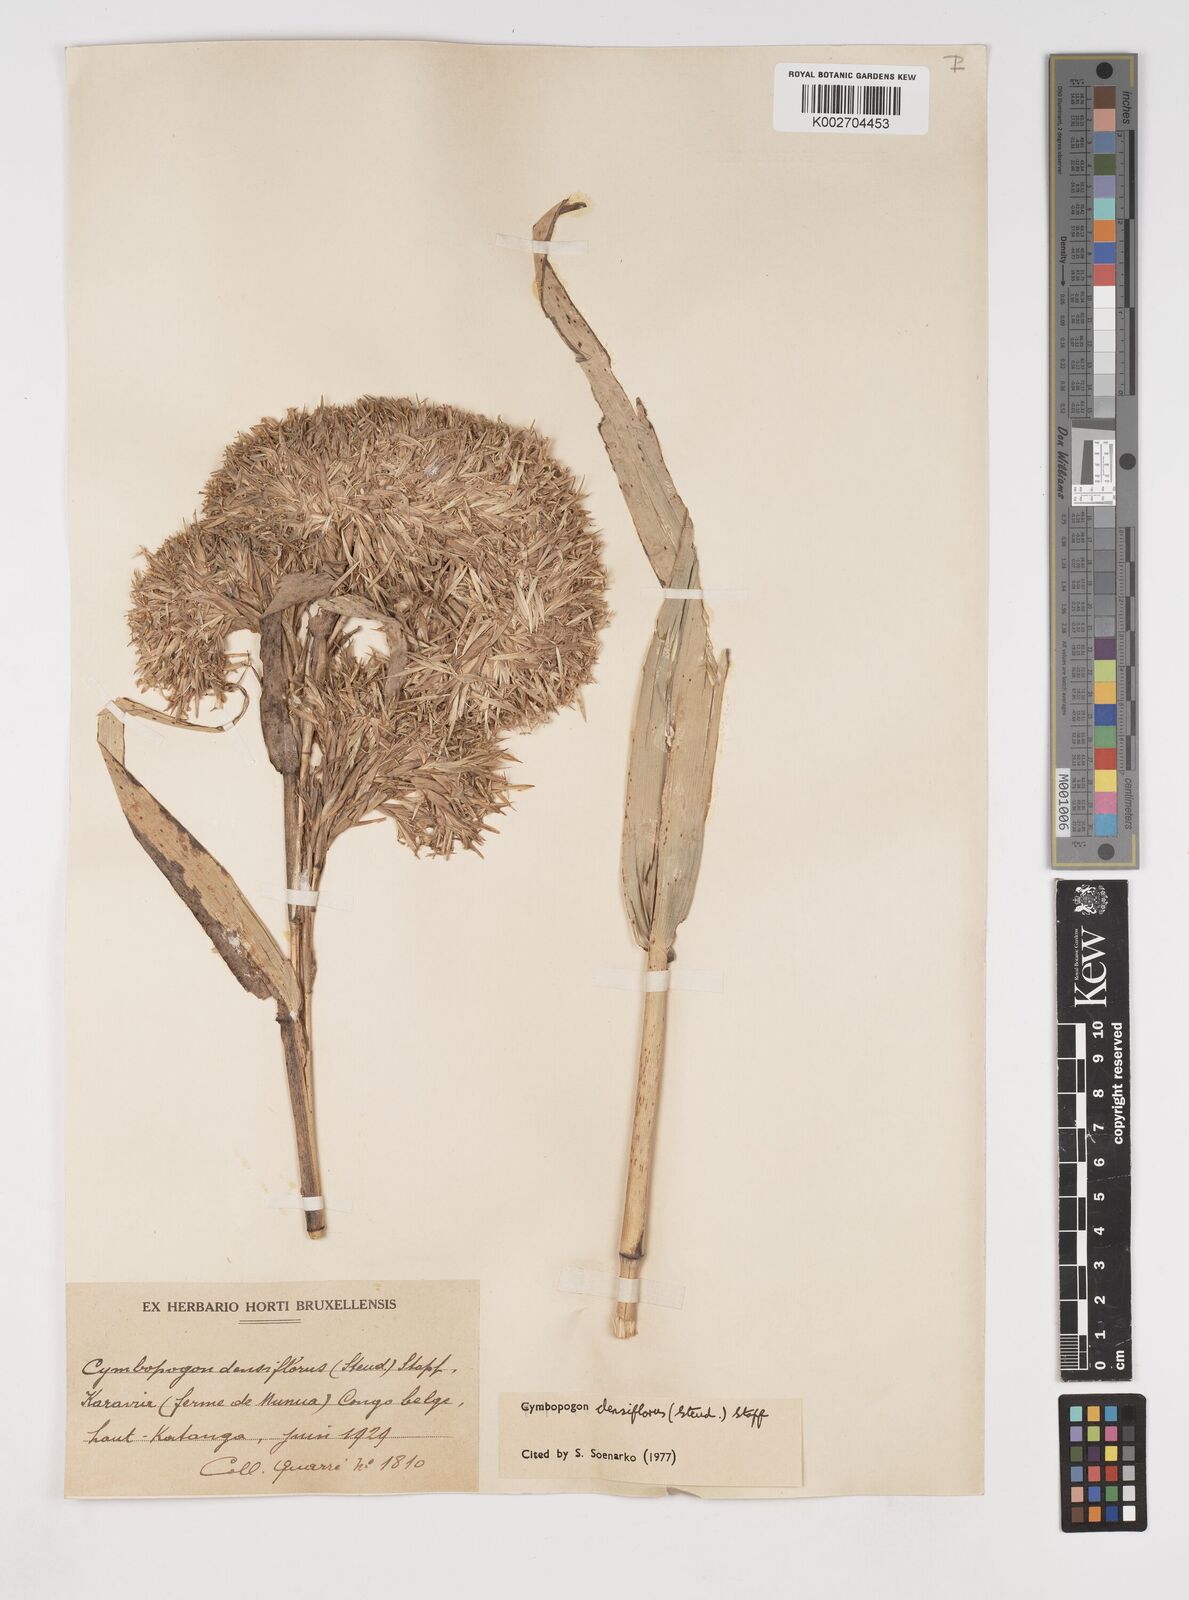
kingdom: Plantae
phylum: Tracheophyta
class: Liliopsida
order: Poales
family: Poaceae
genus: Cymbopogon
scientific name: Cymbopogon densiflorus
